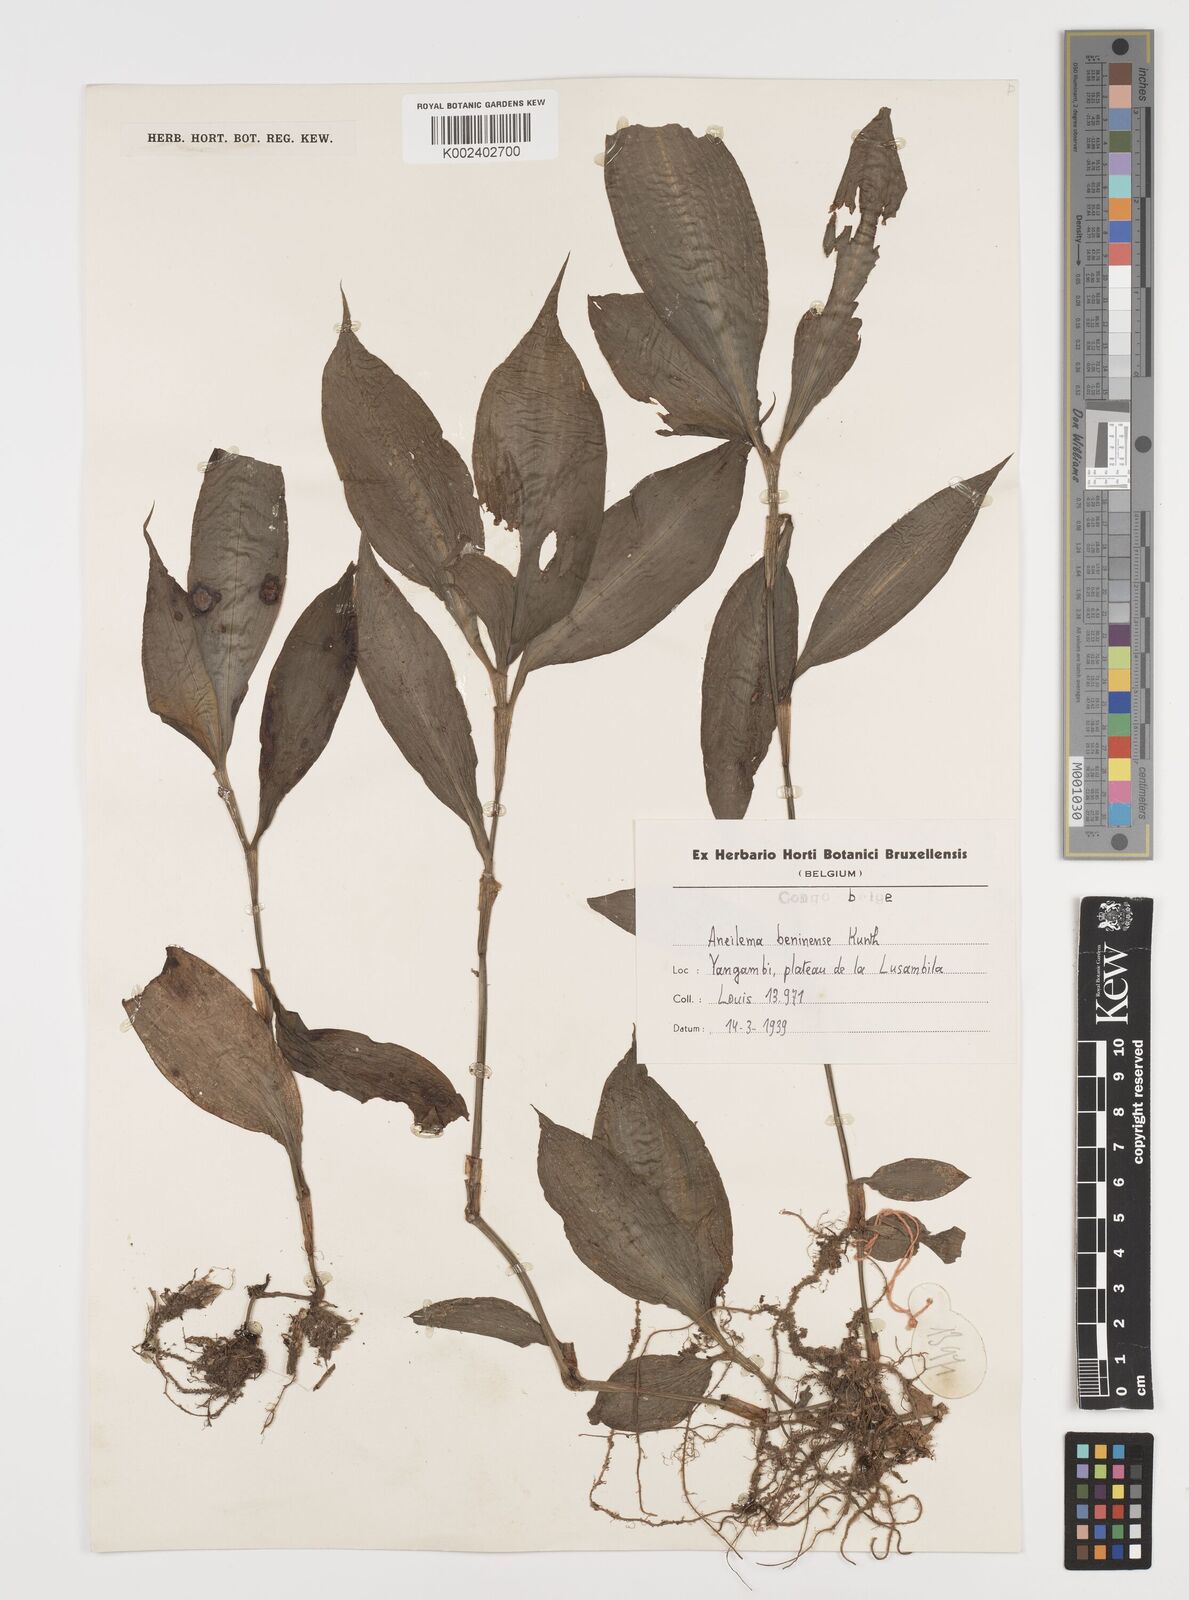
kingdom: Plantae
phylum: Tracheophyta
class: Liliopsida
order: Commelinales
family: Commelinaceae
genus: Aneilema
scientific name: Aneilema beniniense
